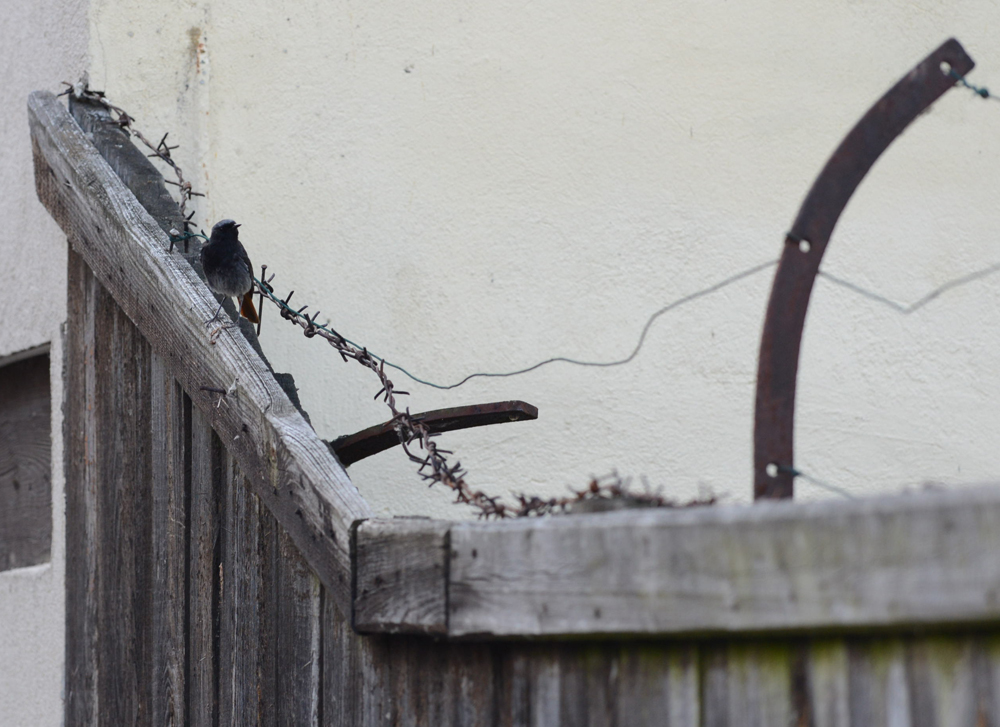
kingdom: Animalia
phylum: Chordata
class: Aves
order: Passeriformes
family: Muscicapidae
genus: Phoenicurus
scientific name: Phoenicurus ochruros
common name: Black redstart
